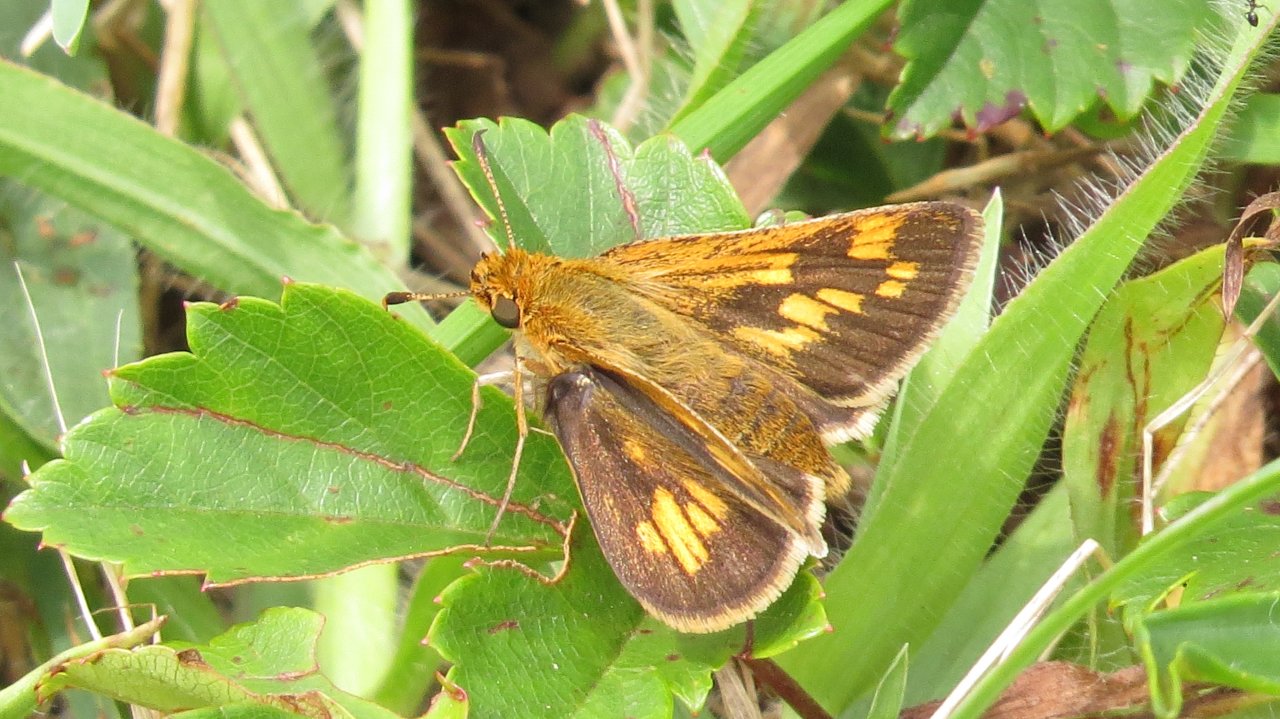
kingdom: Animalia
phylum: Arthropoda
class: Insecta
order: Lepidoptera
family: Hesperiidae
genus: Polites
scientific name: Polites coras
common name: Peck's Skipper
